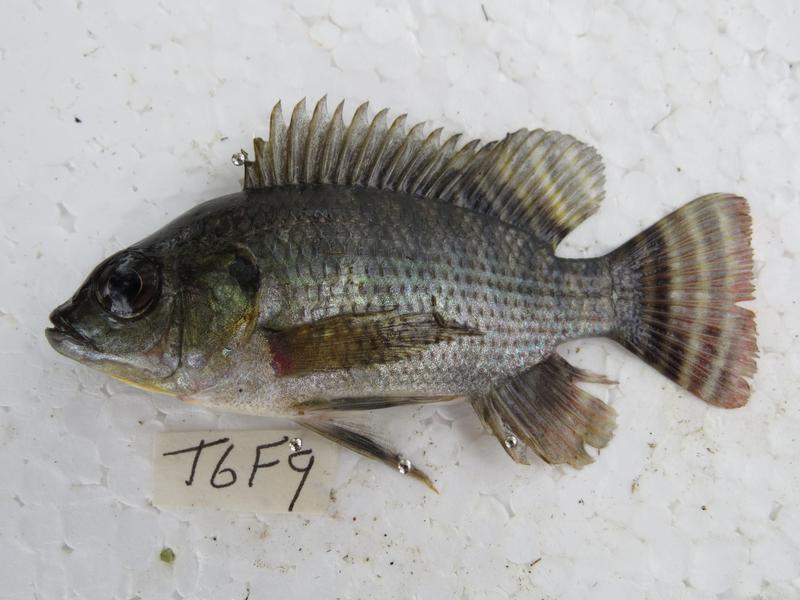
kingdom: Animalia
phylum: Chordata
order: Perciformes
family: Cichlidae
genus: Oreochromis
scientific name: Oreochromis niloticus
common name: Nile tilapia
